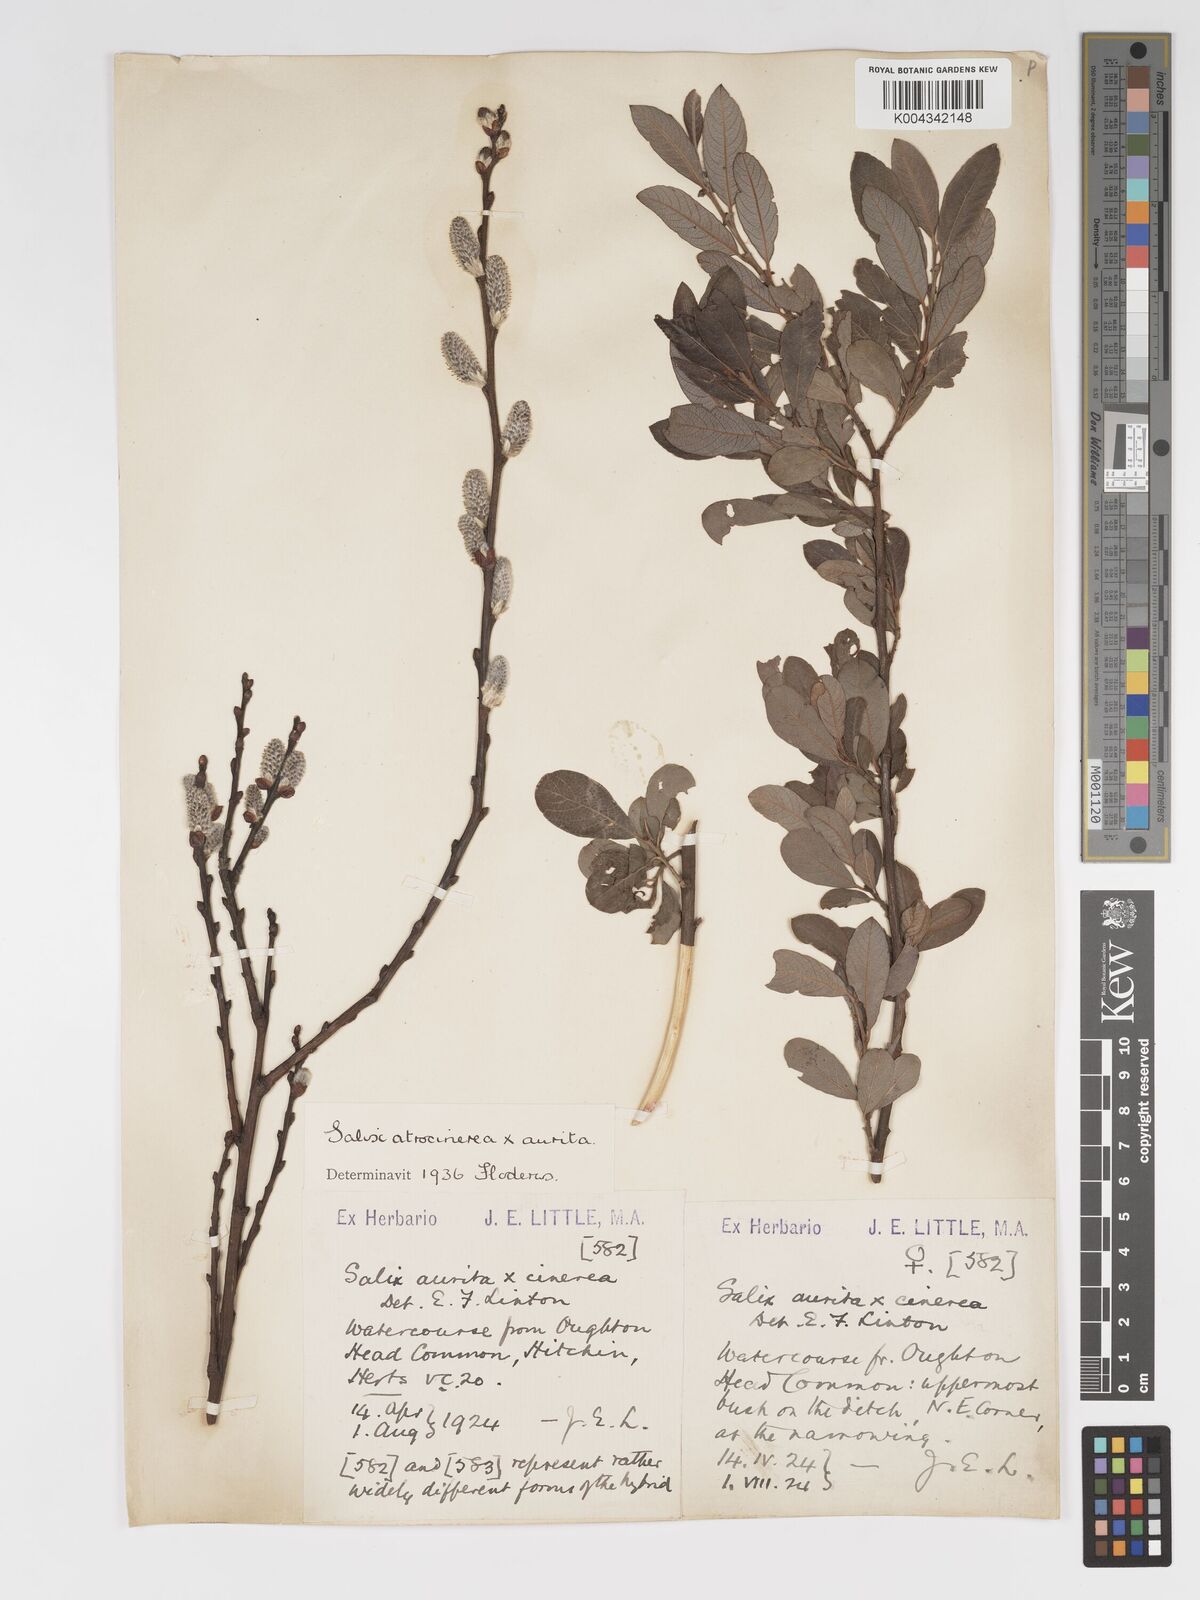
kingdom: Plantae
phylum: Tracheophyta
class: Magnoliopsida
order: Malpighiales
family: Salicaceae
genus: Salix
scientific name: Salix
